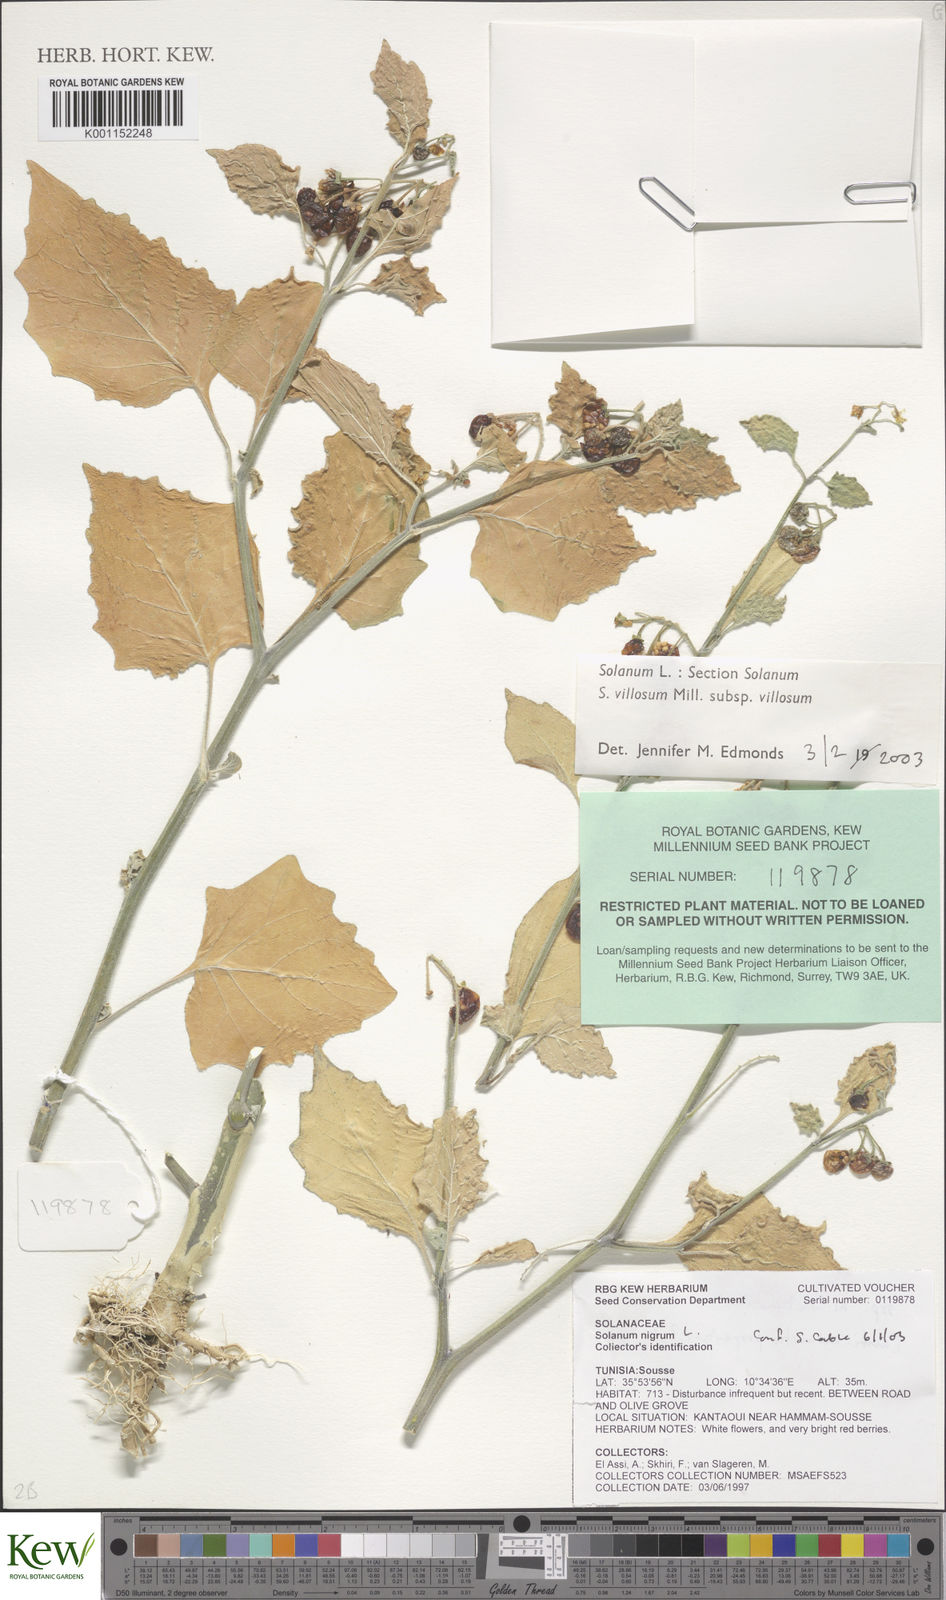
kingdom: Plantae
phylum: Tracheophyta
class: Magnoliopsida
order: Solanales
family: Solanaceae
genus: Solanum
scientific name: Solanum villosum
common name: Red nightshade
